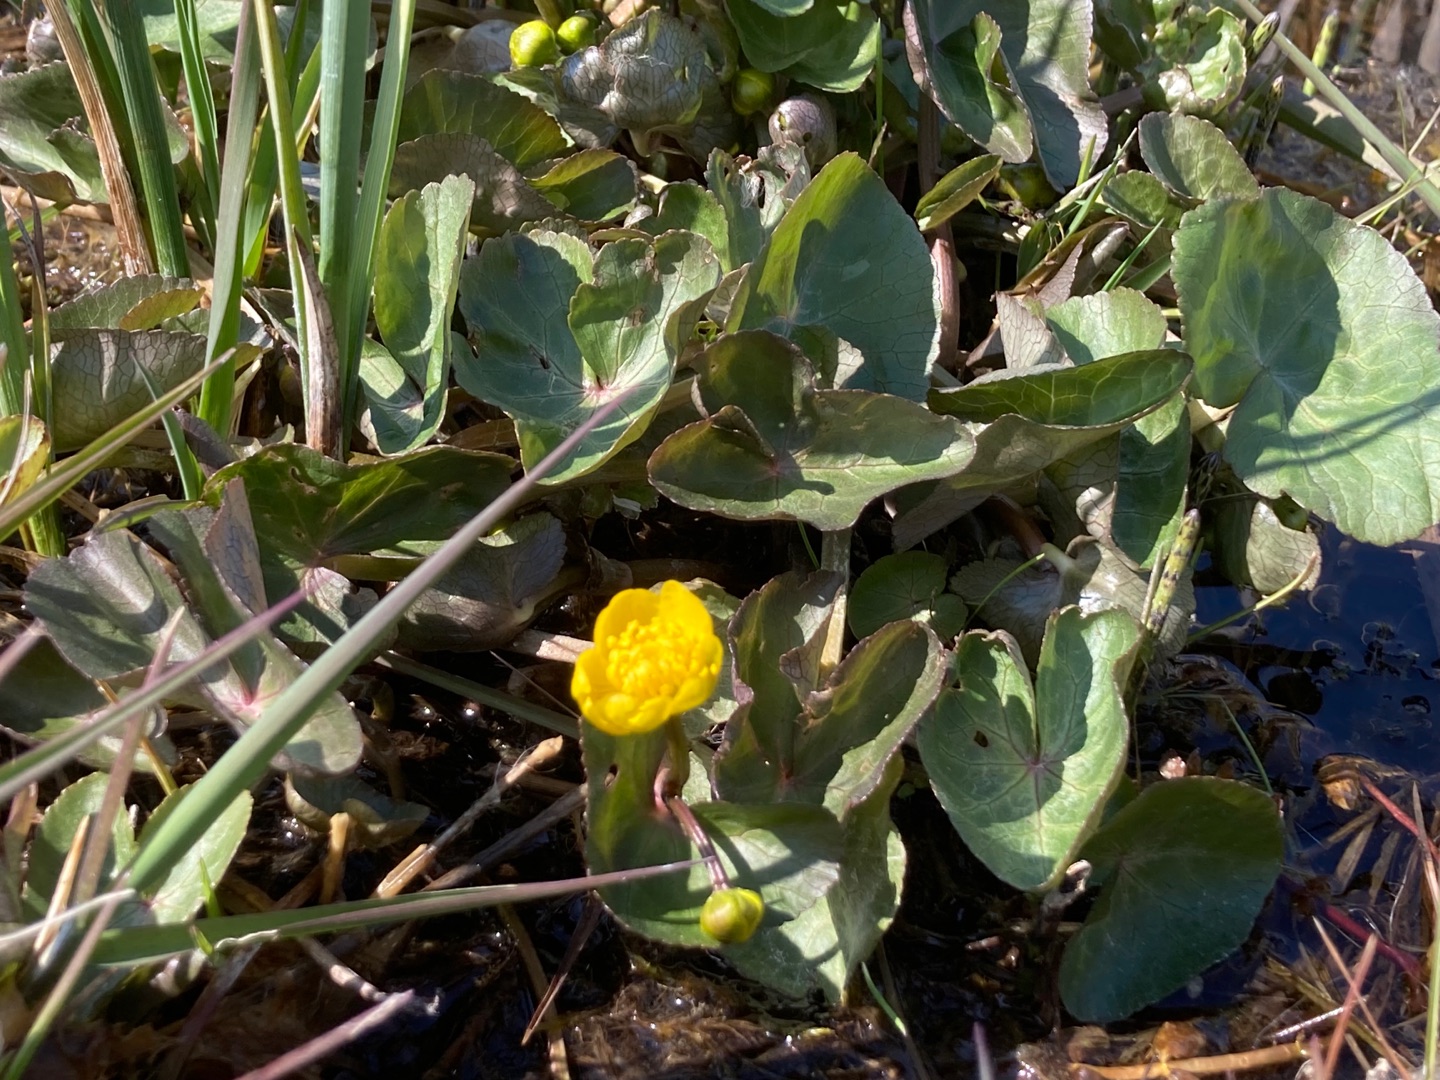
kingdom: Plantae
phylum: Tracheophyta
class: Magnoliopsida
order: Ranunculales
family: Ranunculaceae
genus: Caltha
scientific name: Caltha palustris
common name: Eng-kabbeleje
